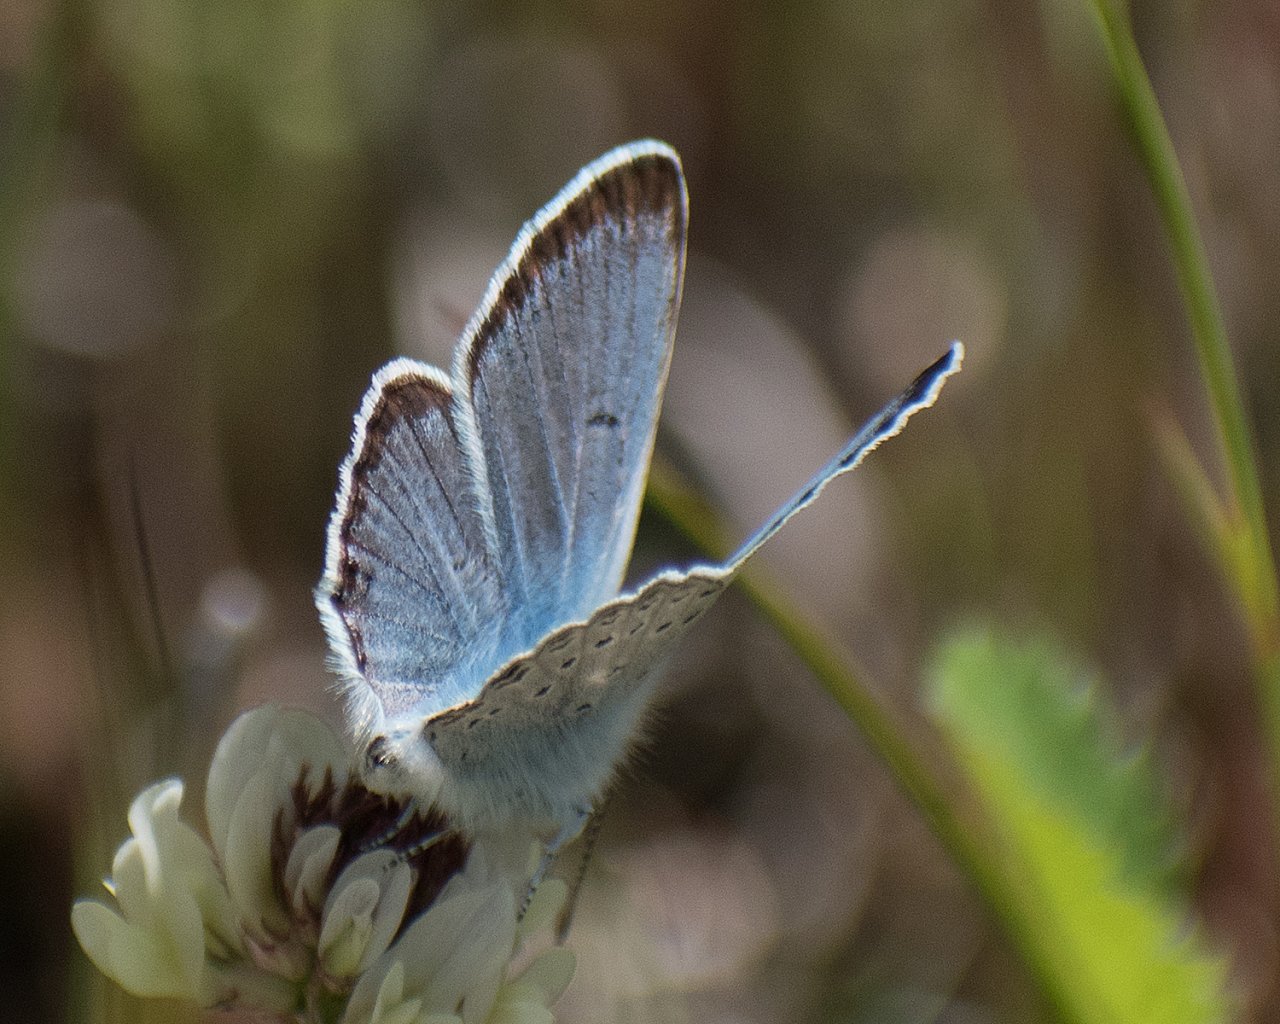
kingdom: Animalia
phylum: Arthropoda
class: Insecta
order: Lepidoptera
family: Lycaenidae
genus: Plebejus
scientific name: Plebejus saepiolus
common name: Greenish Blue
